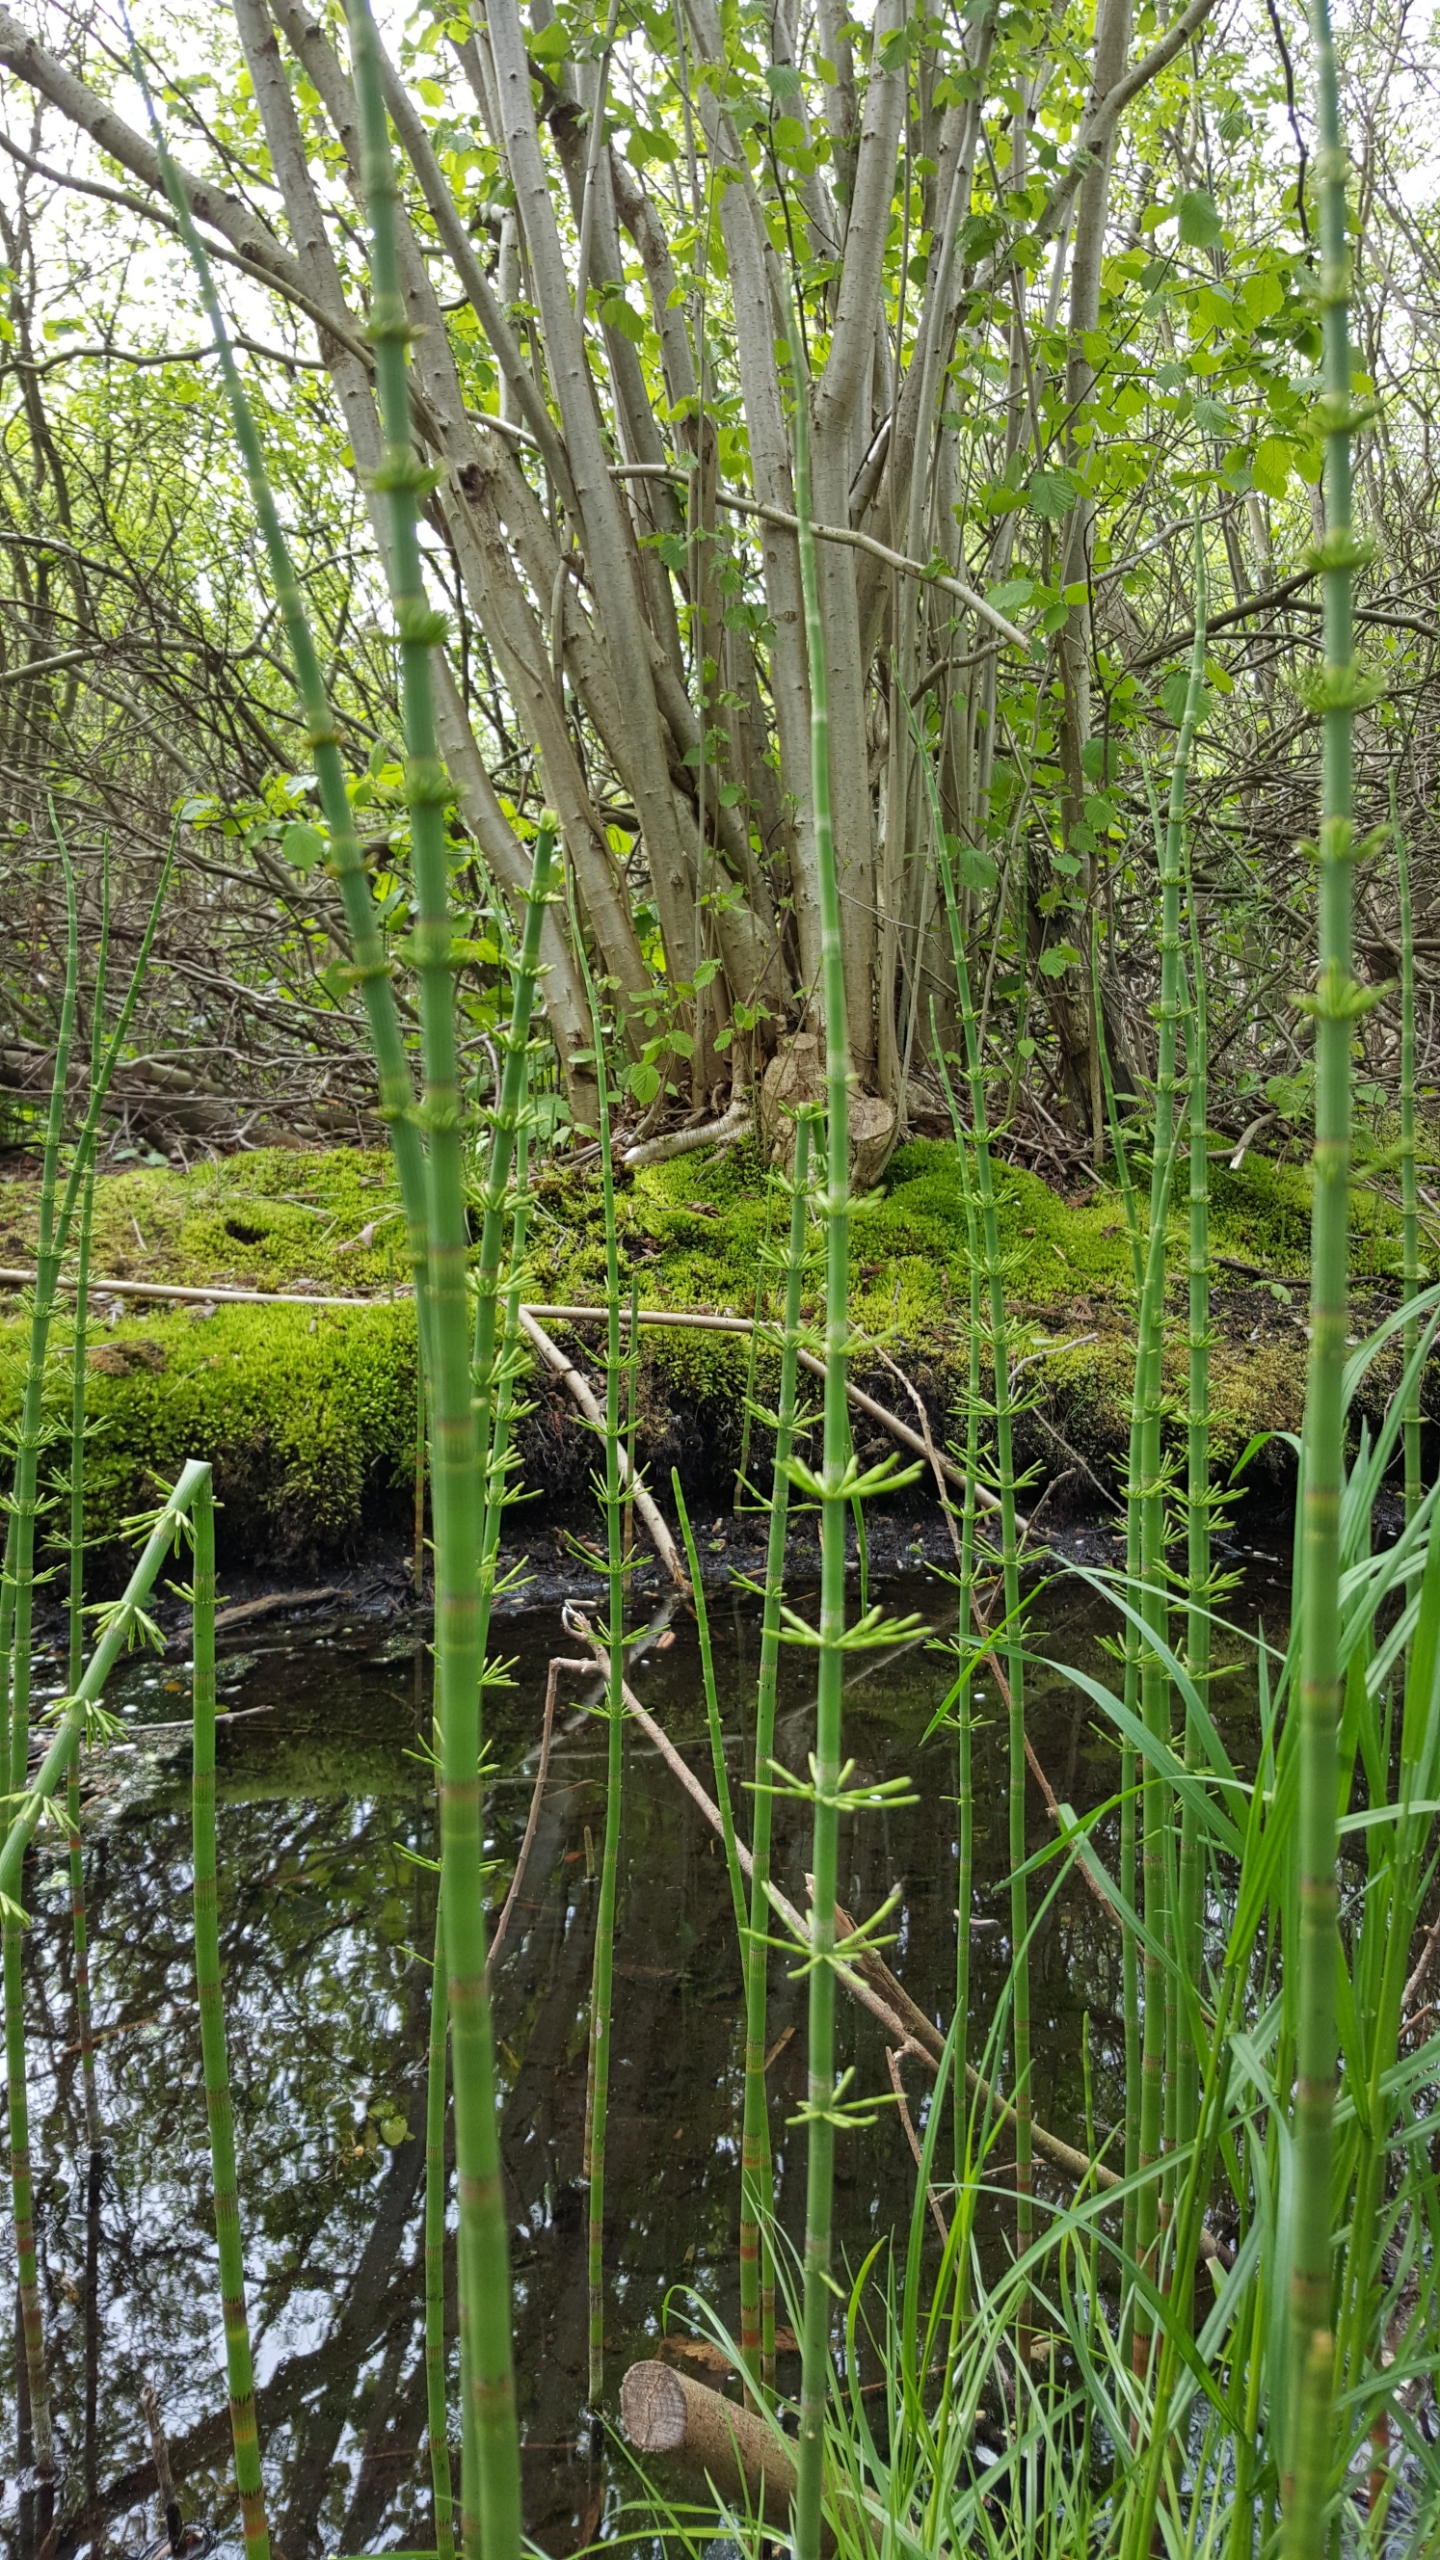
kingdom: Plantae
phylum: Tracheophyta
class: Polypodiopsida
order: Equisetales
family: Equisetaceae
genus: Equisetum
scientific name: Equisetum fluviatile
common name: Dynd-padderok
